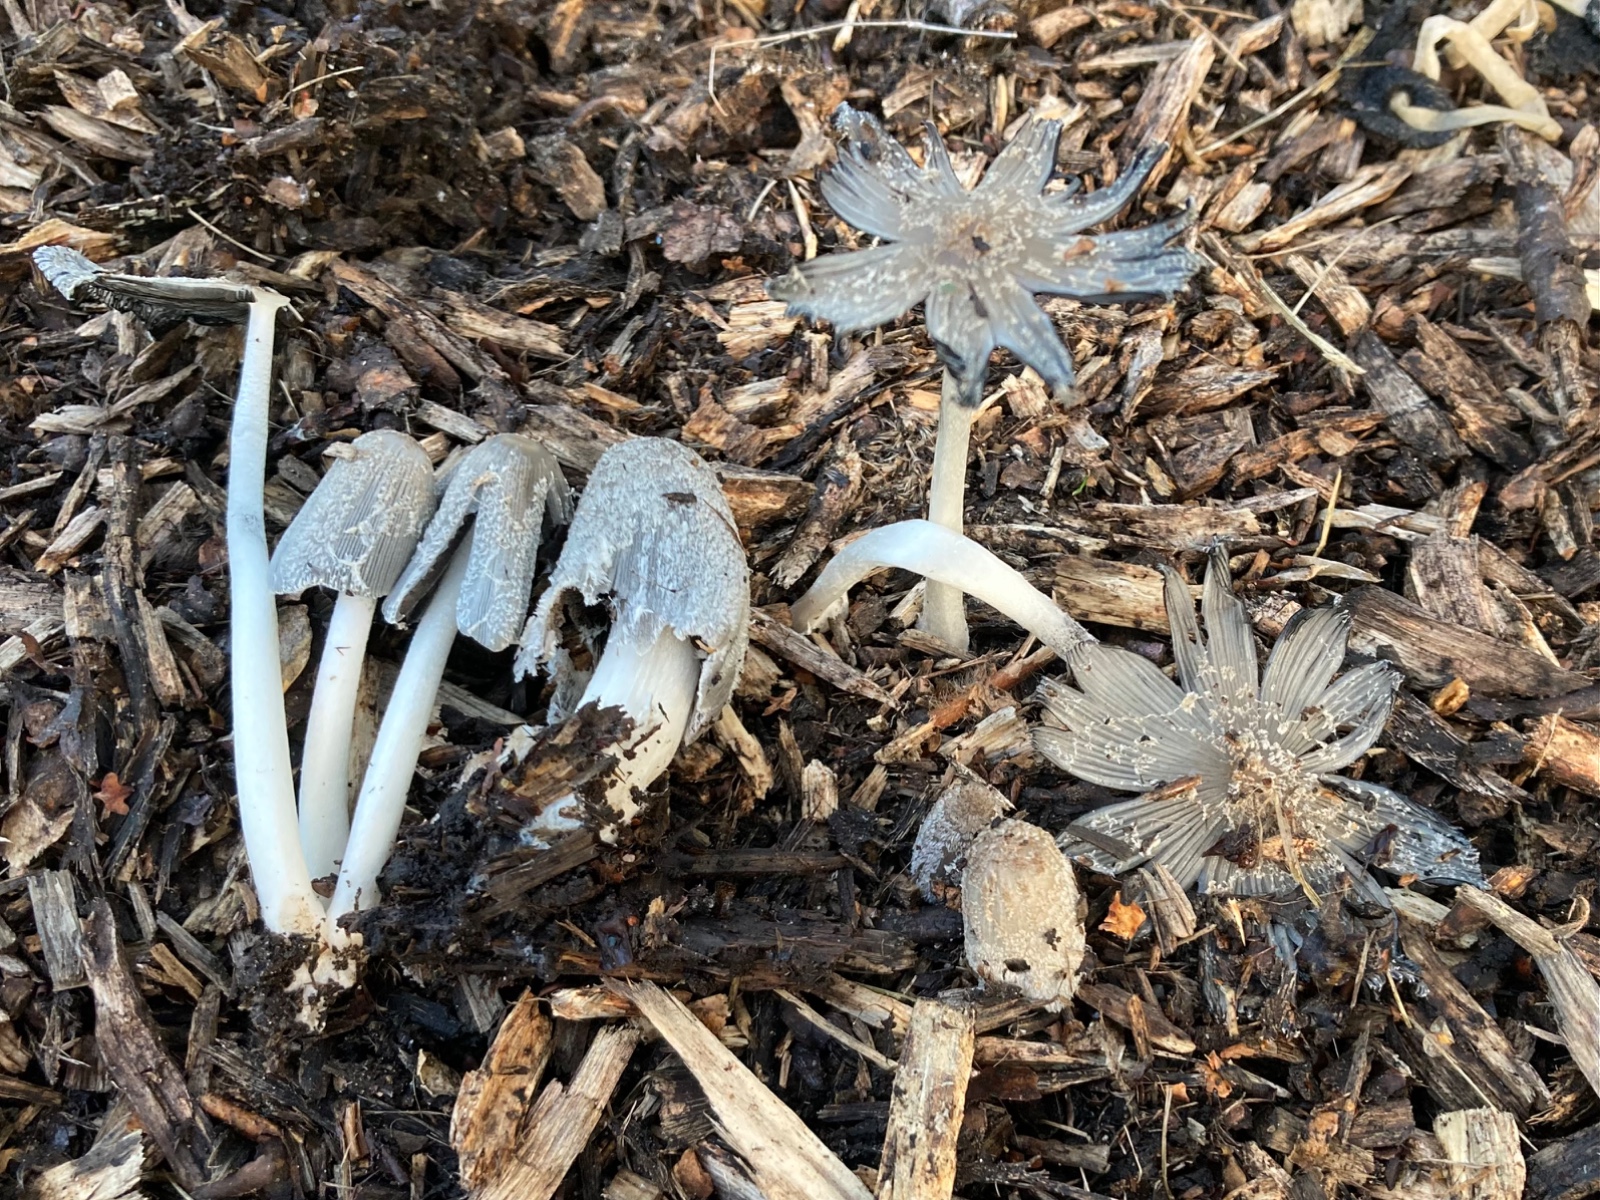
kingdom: Fungi
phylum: Basidiomycota
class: Agaricomycetes
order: Agaricales
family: Psathyrellaceae
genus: Coprinopsis
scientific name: Coprinopsis
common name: blækhat
